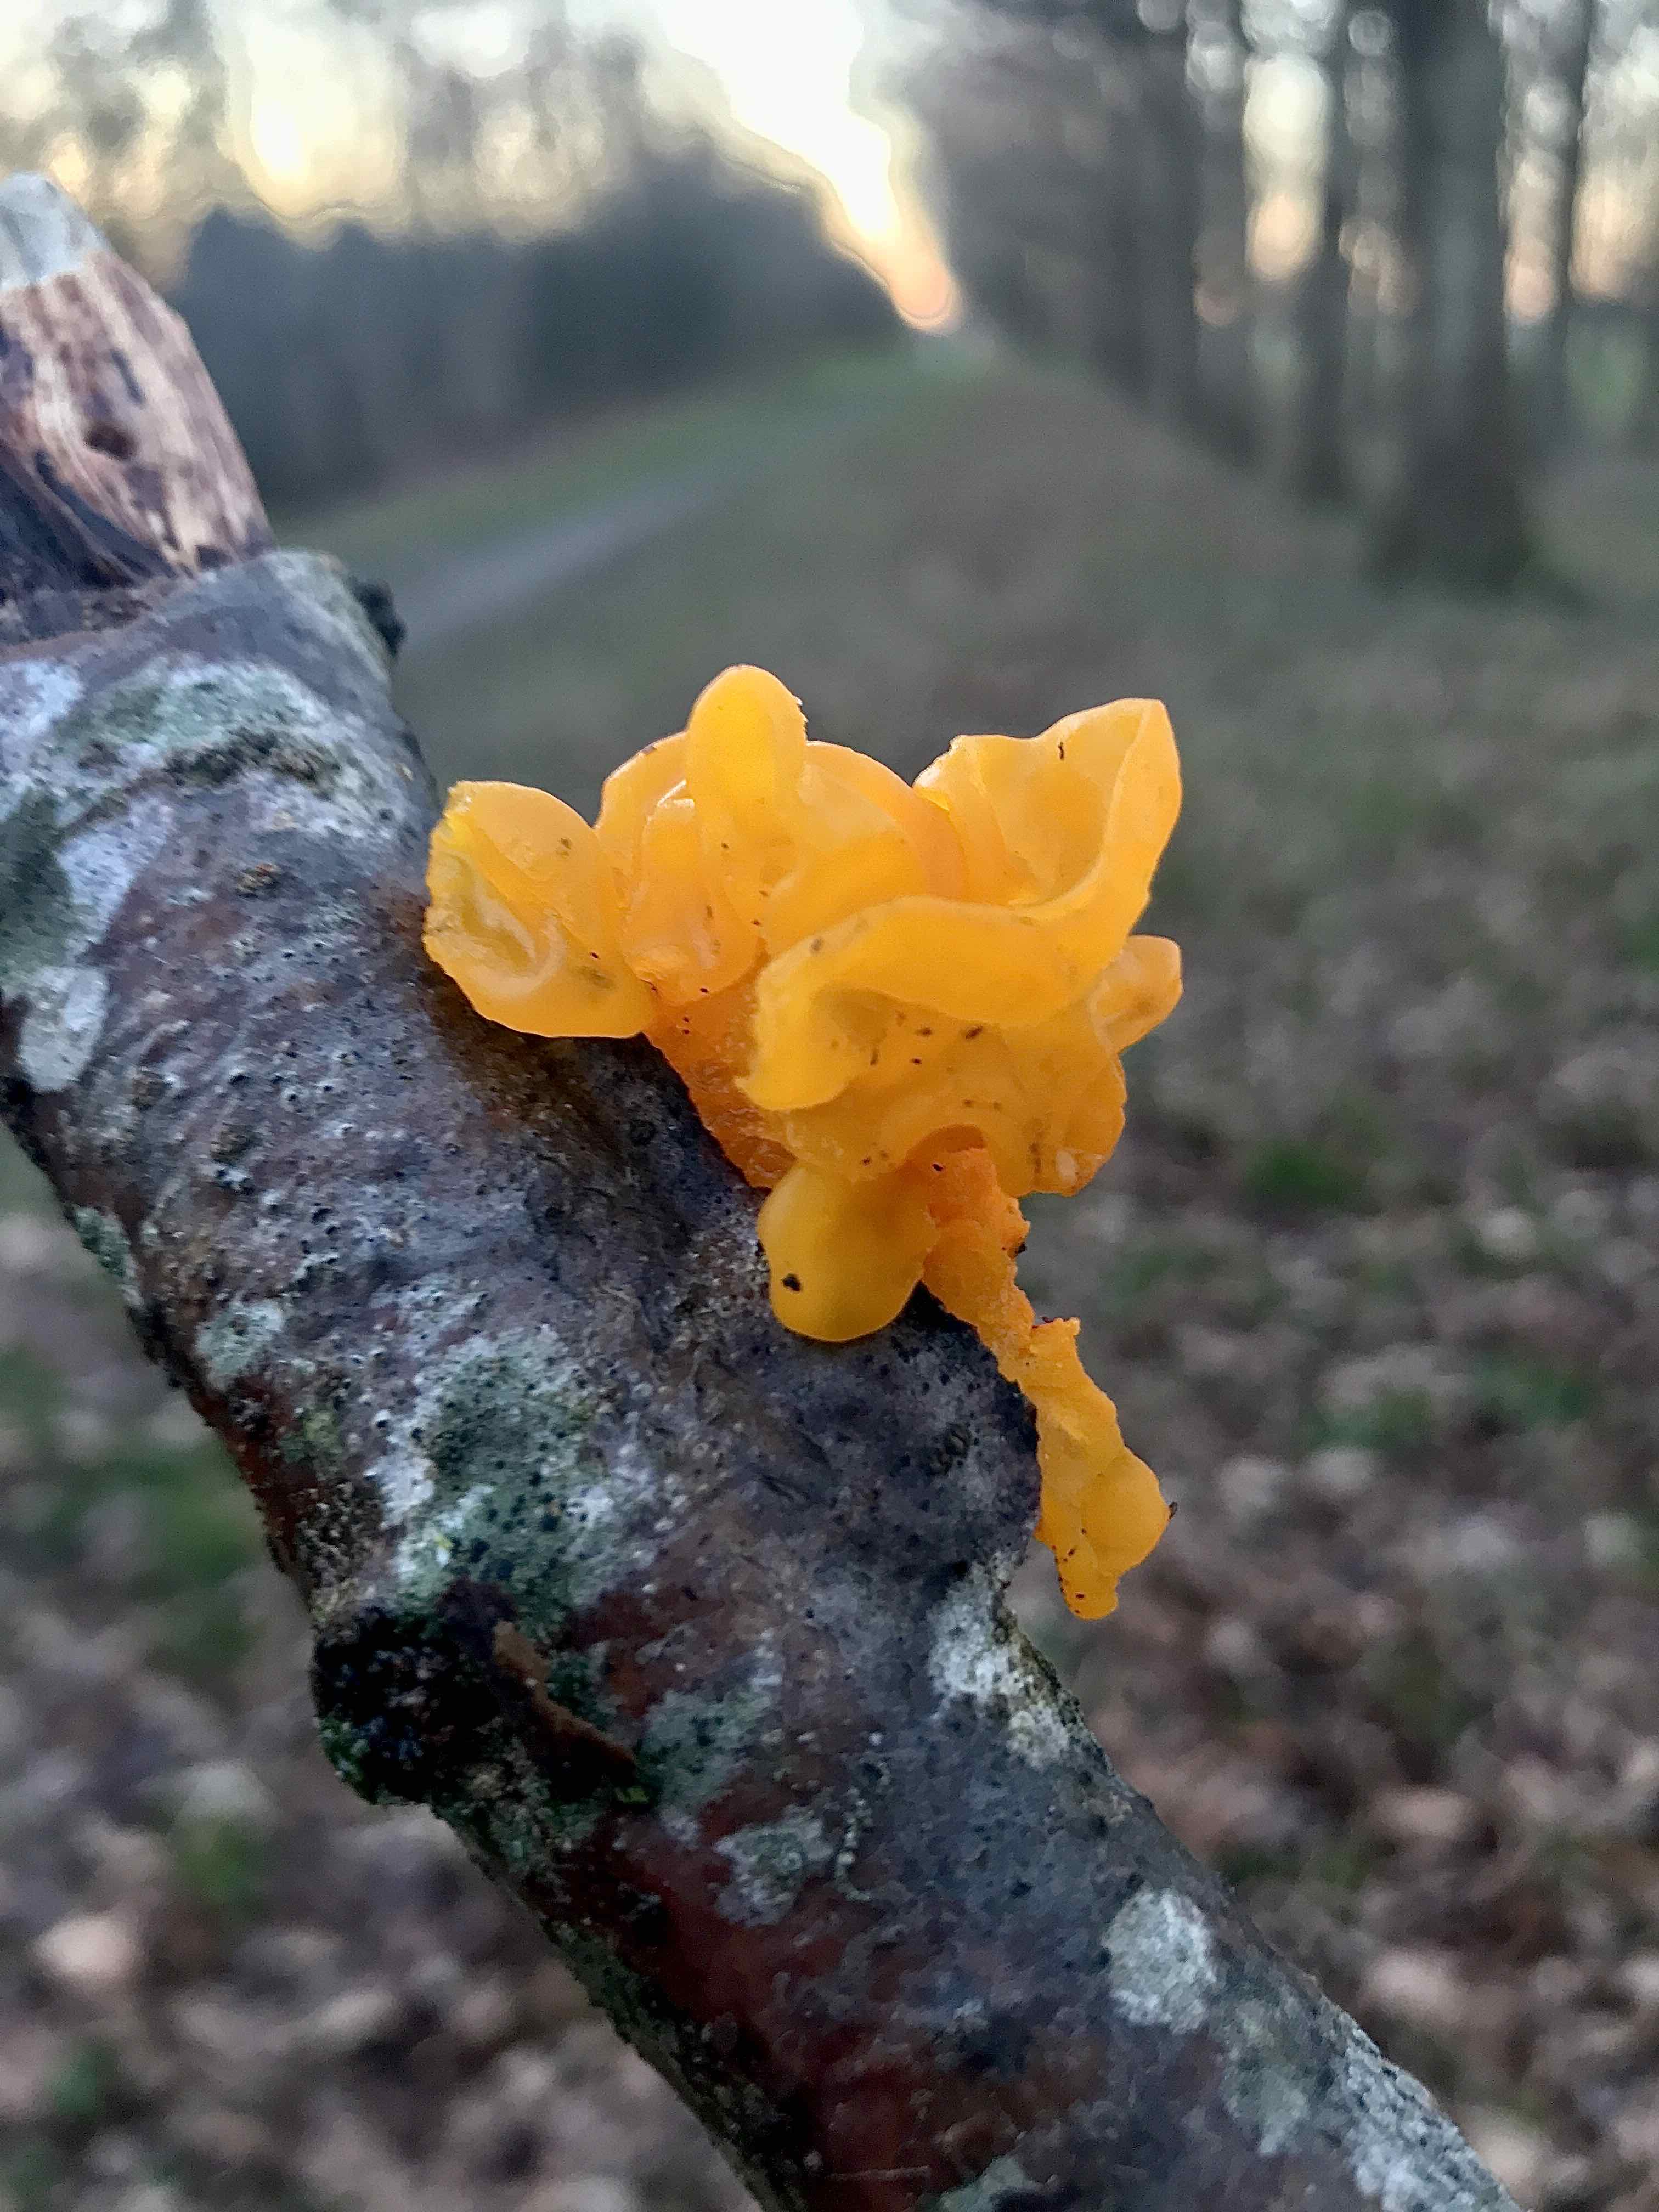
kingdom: Fungi
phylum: Basidiomycota
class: Tremellomycetes
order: Tremellales
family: Tremellaceae
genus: Tremella
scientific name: Tremella mesenterica
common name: gul bævresvamp
